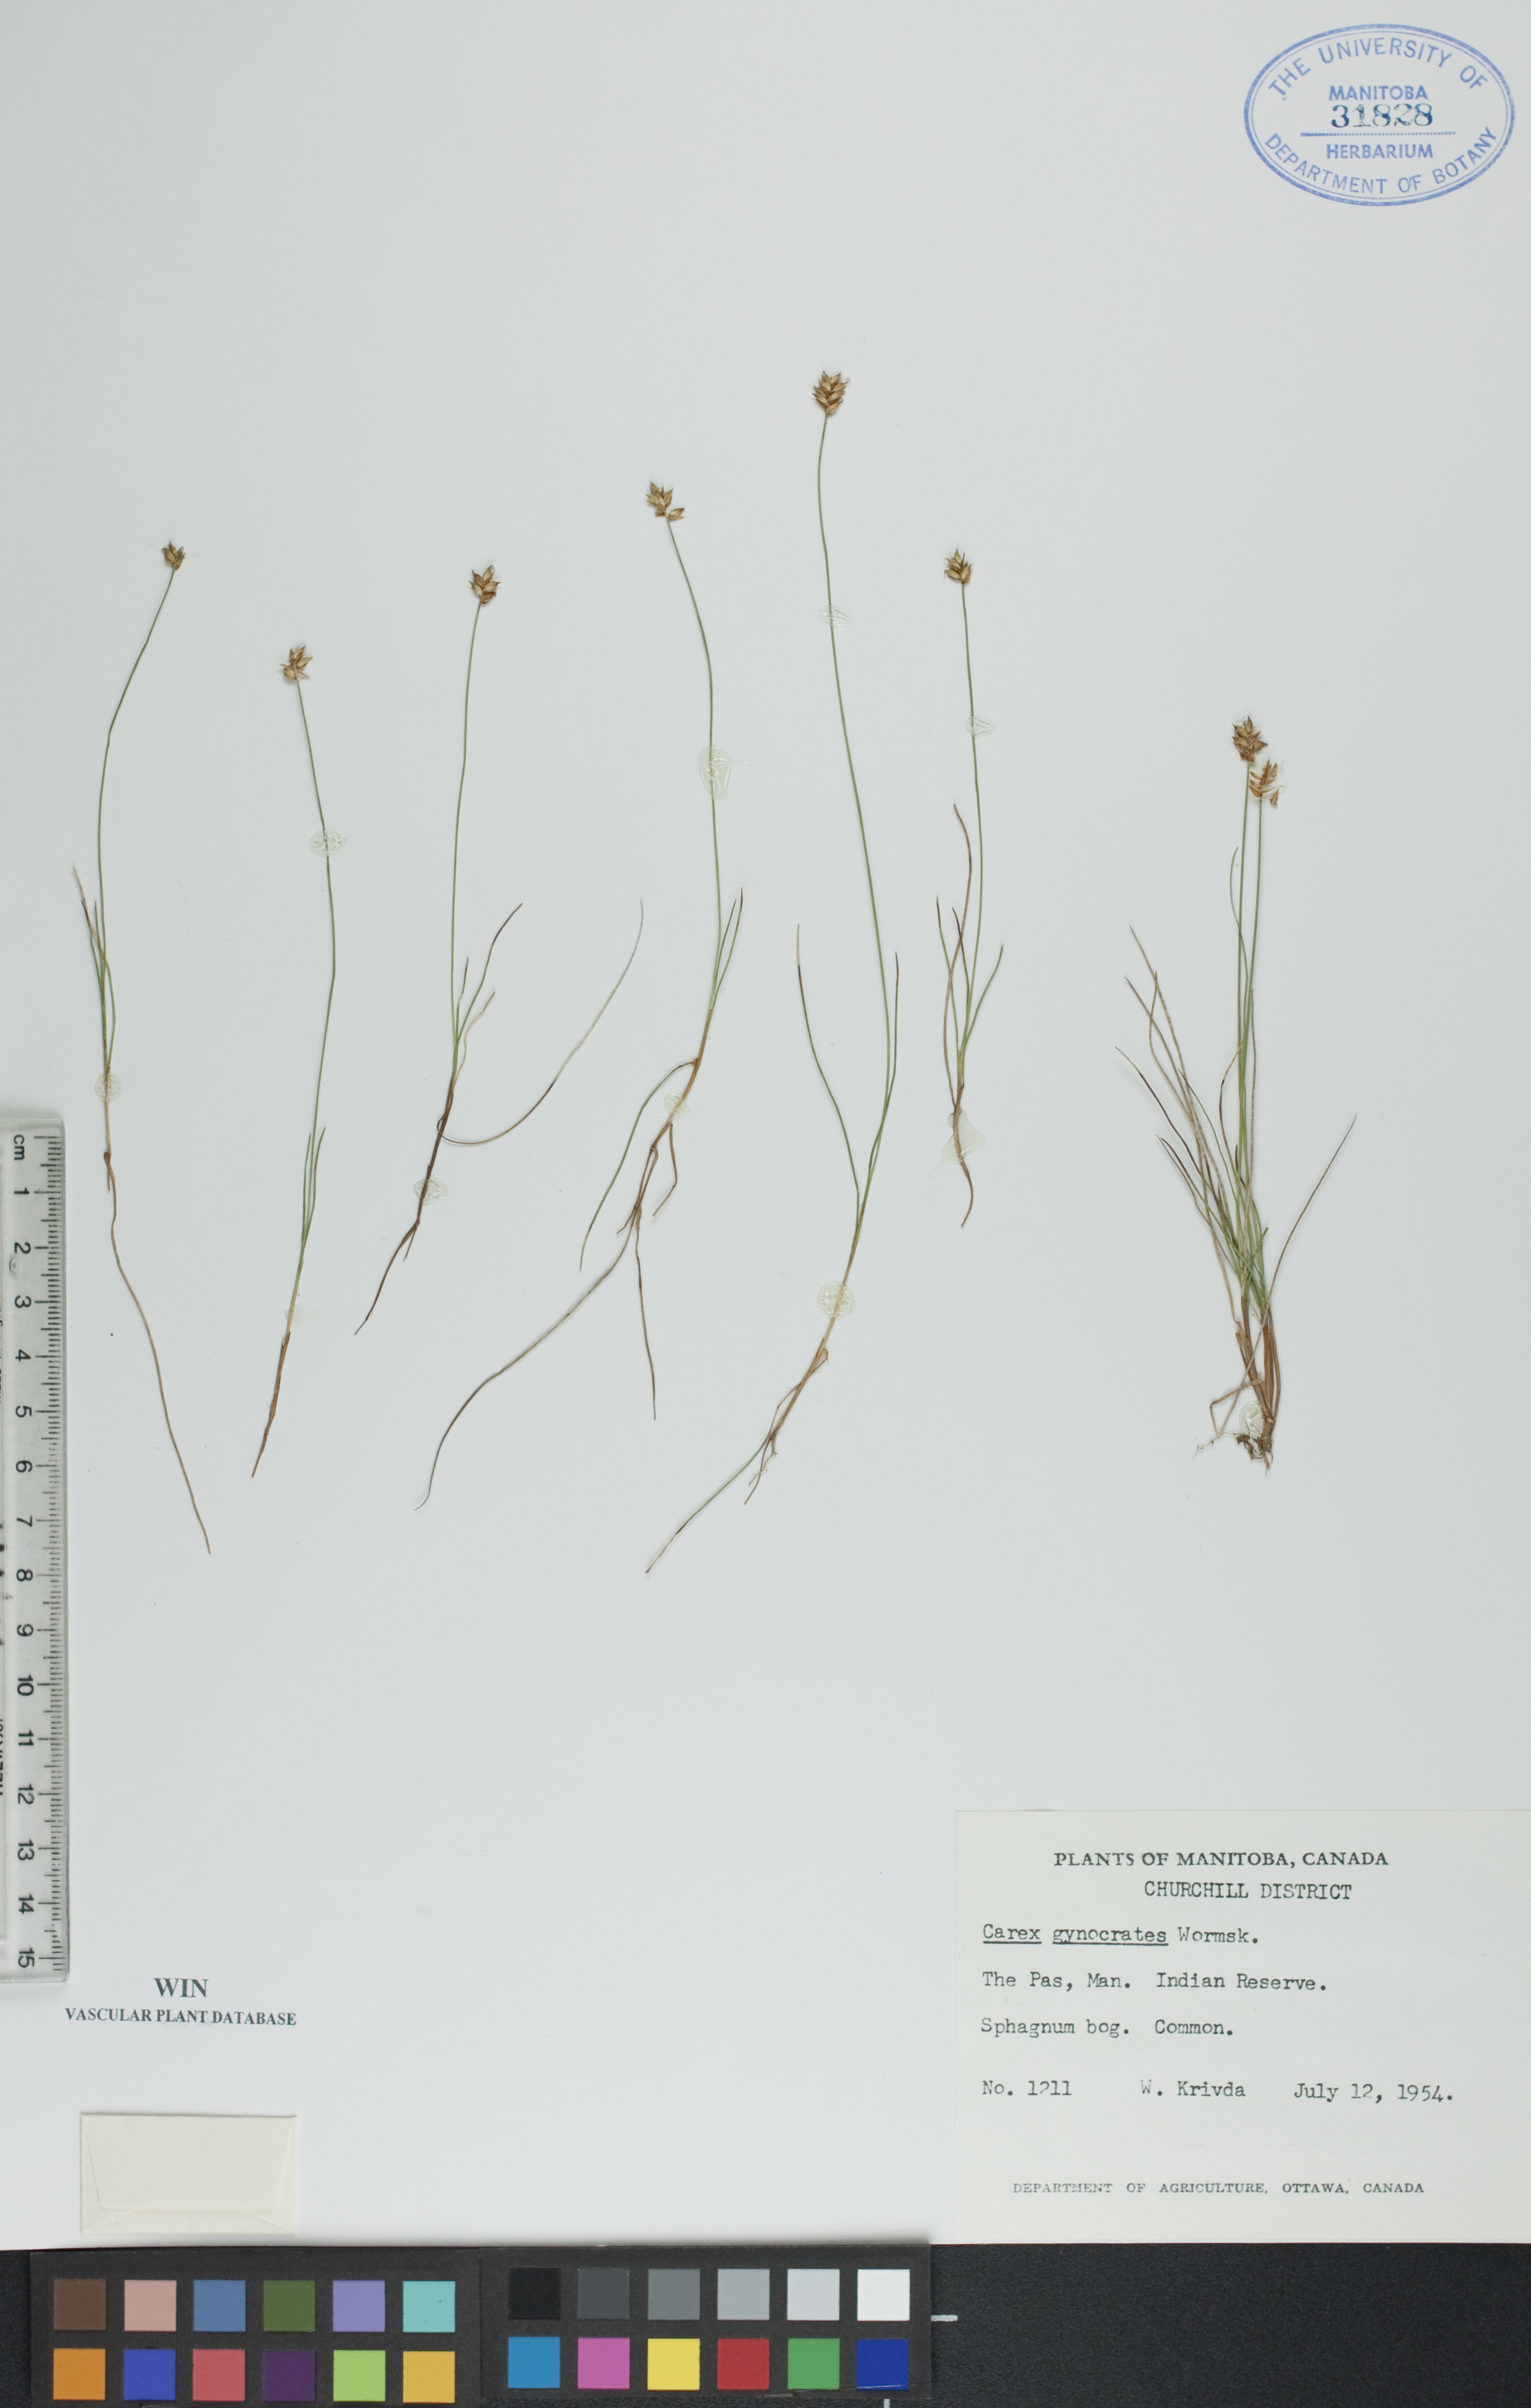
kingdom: Plantae
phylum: Tracheophyta
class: Liliopsida
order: Poales
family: Cyperaceae
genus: Carex
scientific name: Carex nardina
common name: Nard sedge
